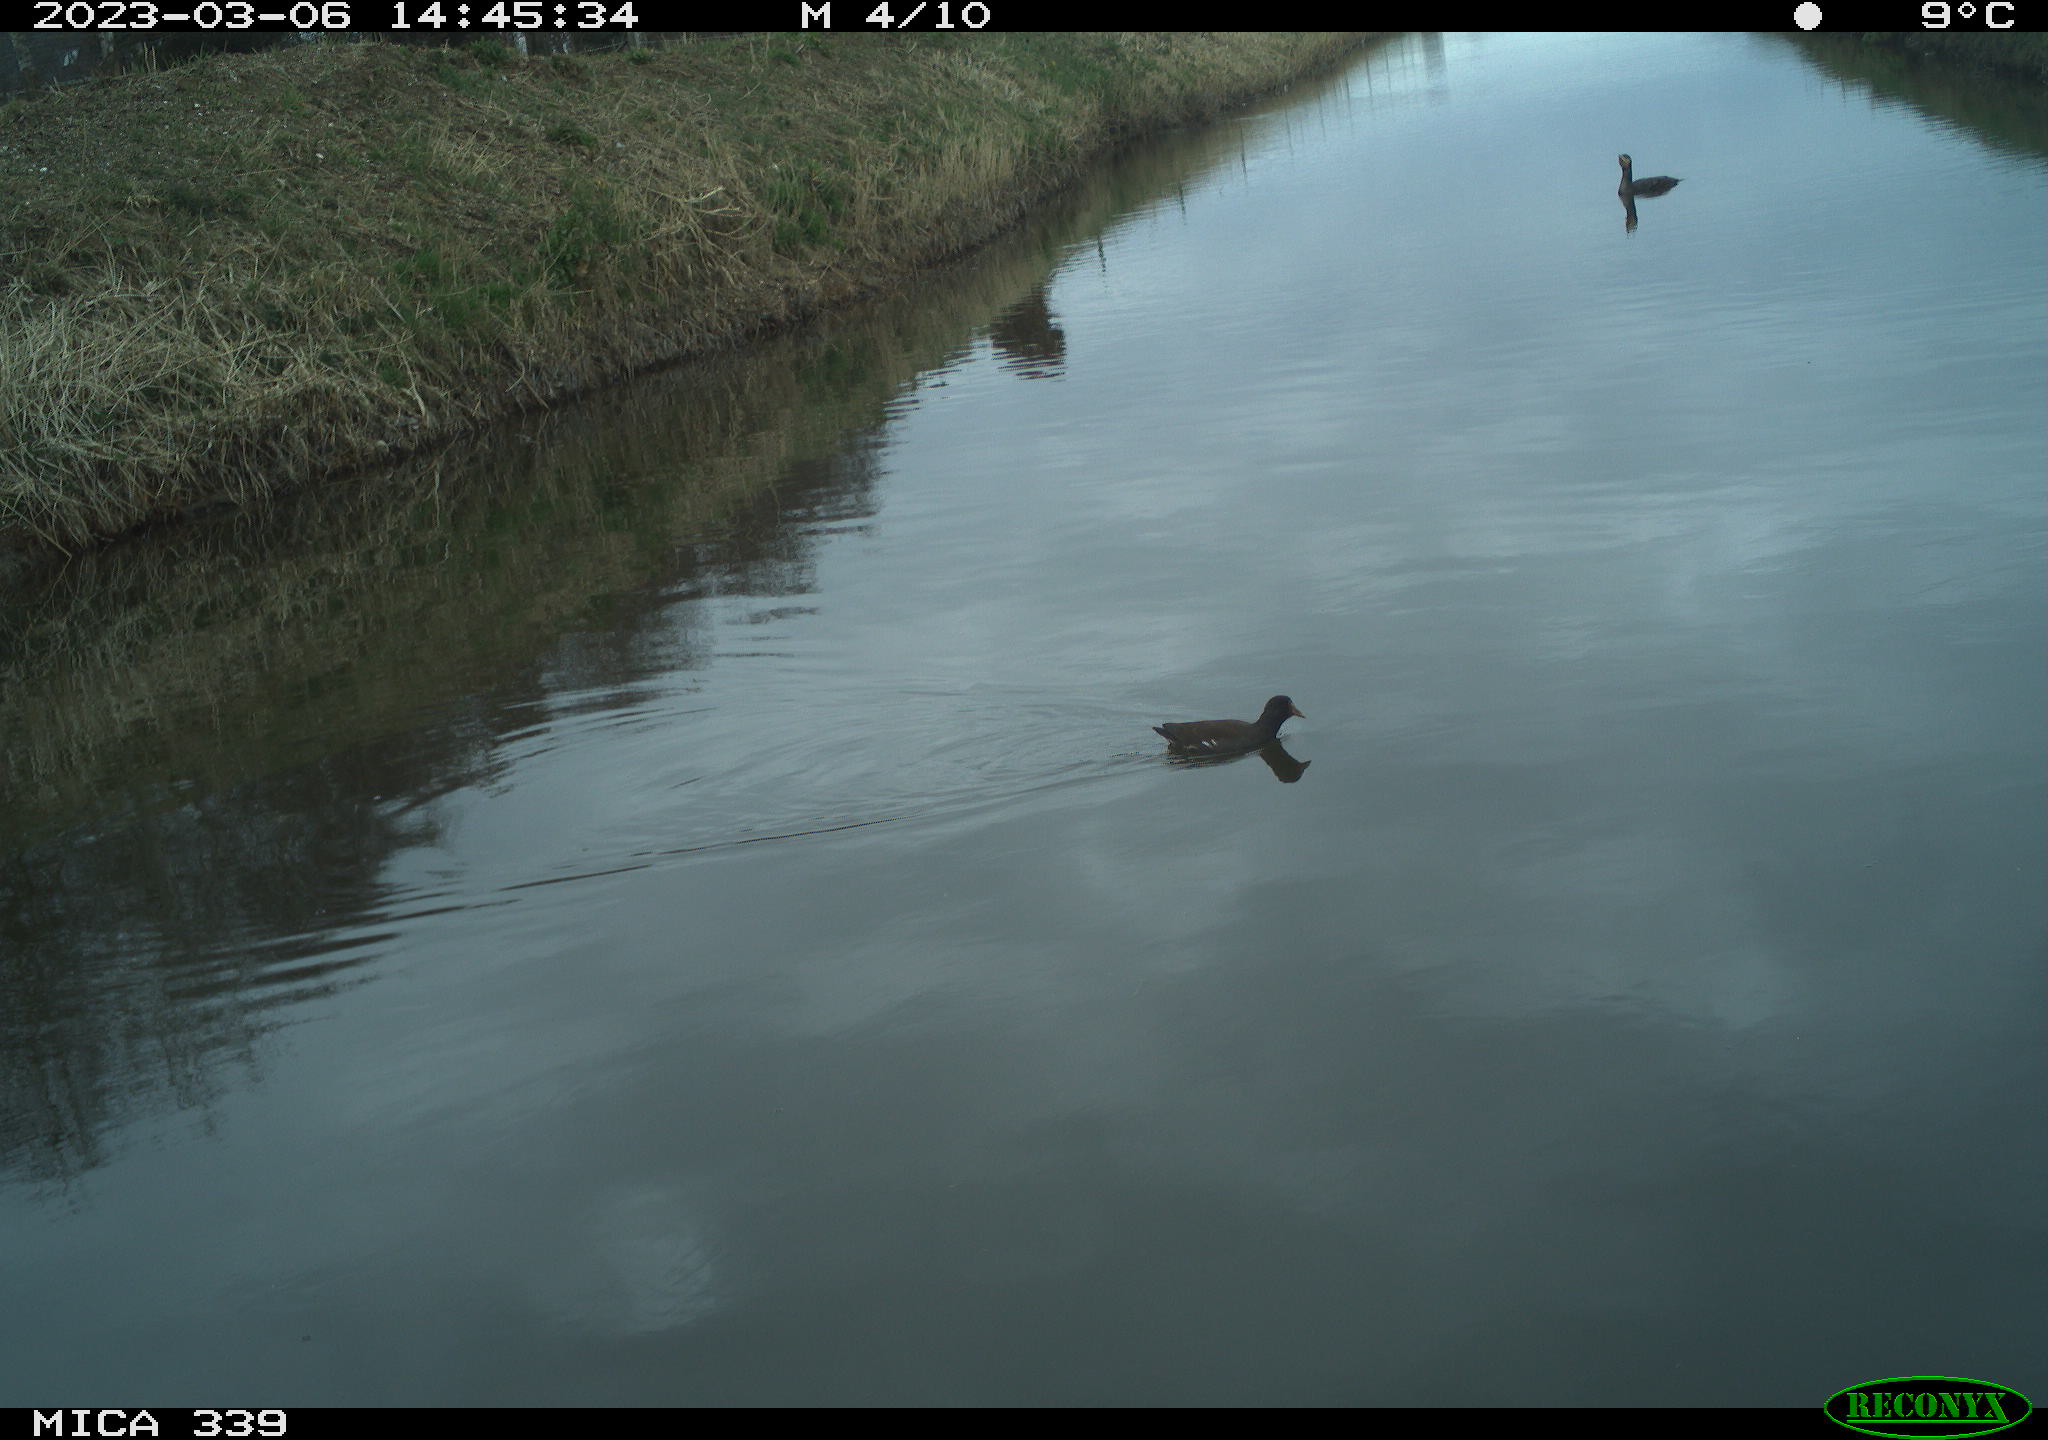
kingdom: Animalia
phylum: Chordata
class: Aves
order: Gruiformes
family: Rallidae
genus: Gallinula
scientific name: Gallinula chloropus
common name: Common moorhen
